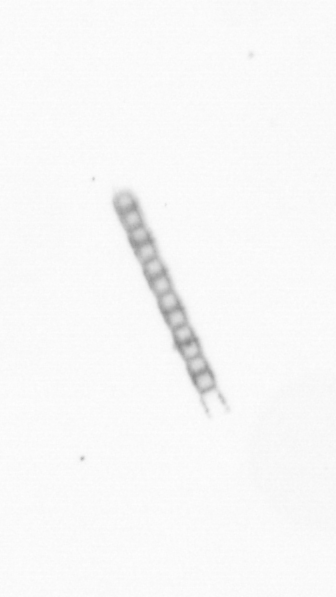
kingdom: Chromista
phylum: Ochrophyta
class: Bacillariophyceae
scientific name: Bacillariophyceae
